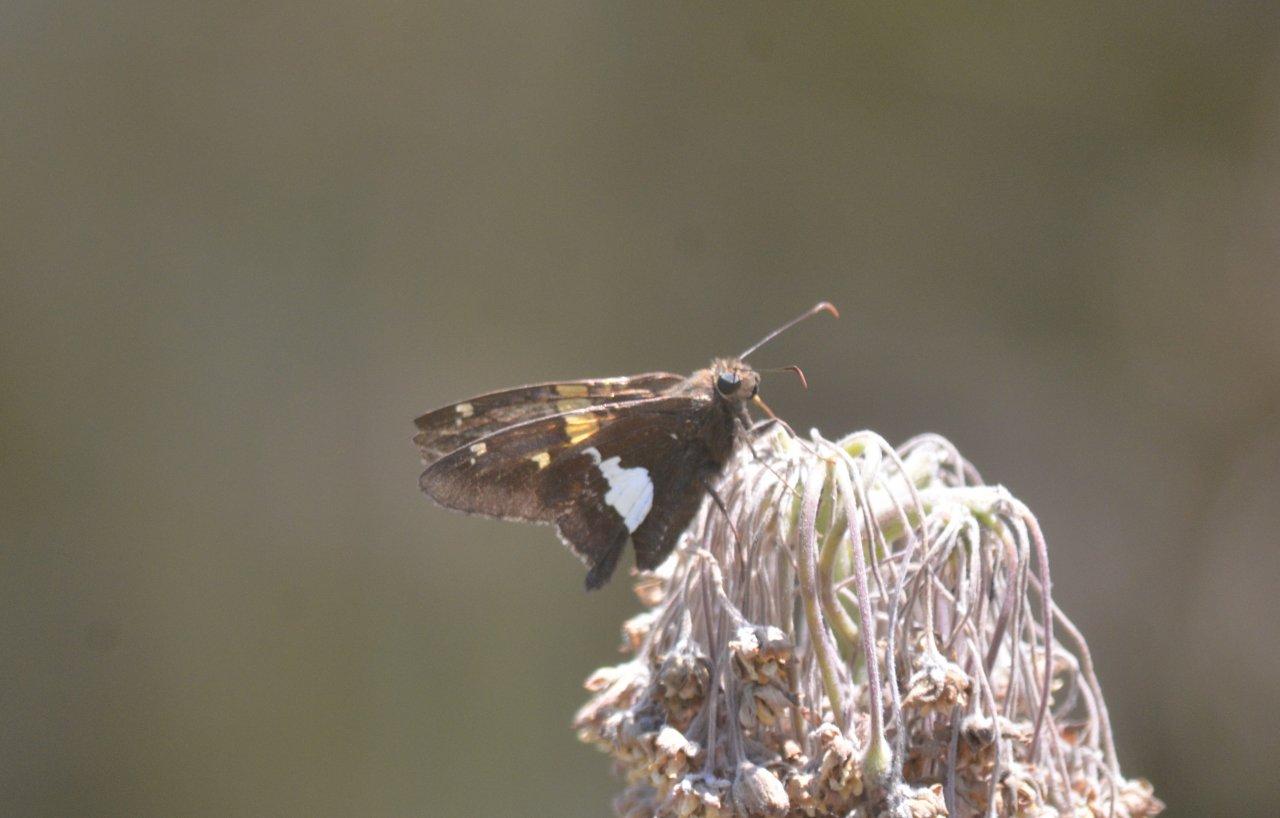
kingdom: Animalia
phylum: Arthropoda
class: Insecta
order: Lepidoptera
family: Hesperiidae
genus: Epargyreus
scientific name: Epargyreus clarus
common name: Silver-spotted Skipper
